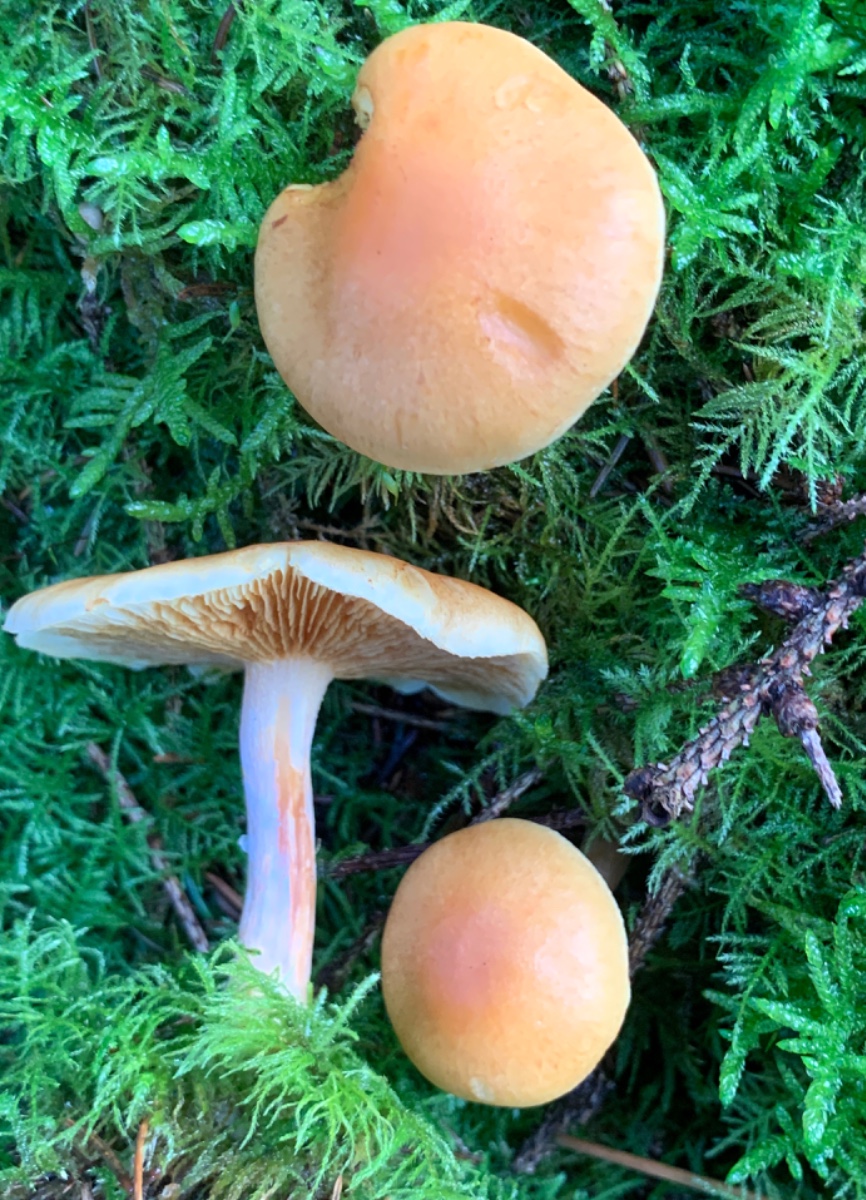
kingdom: Fungi
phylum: Basidiomycota
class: Agaricomycetes
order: Agaricales
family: Hymenogastraceae
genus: Gymnopilus
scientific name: Gymnopilus penetrans
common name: plettet flammehat
